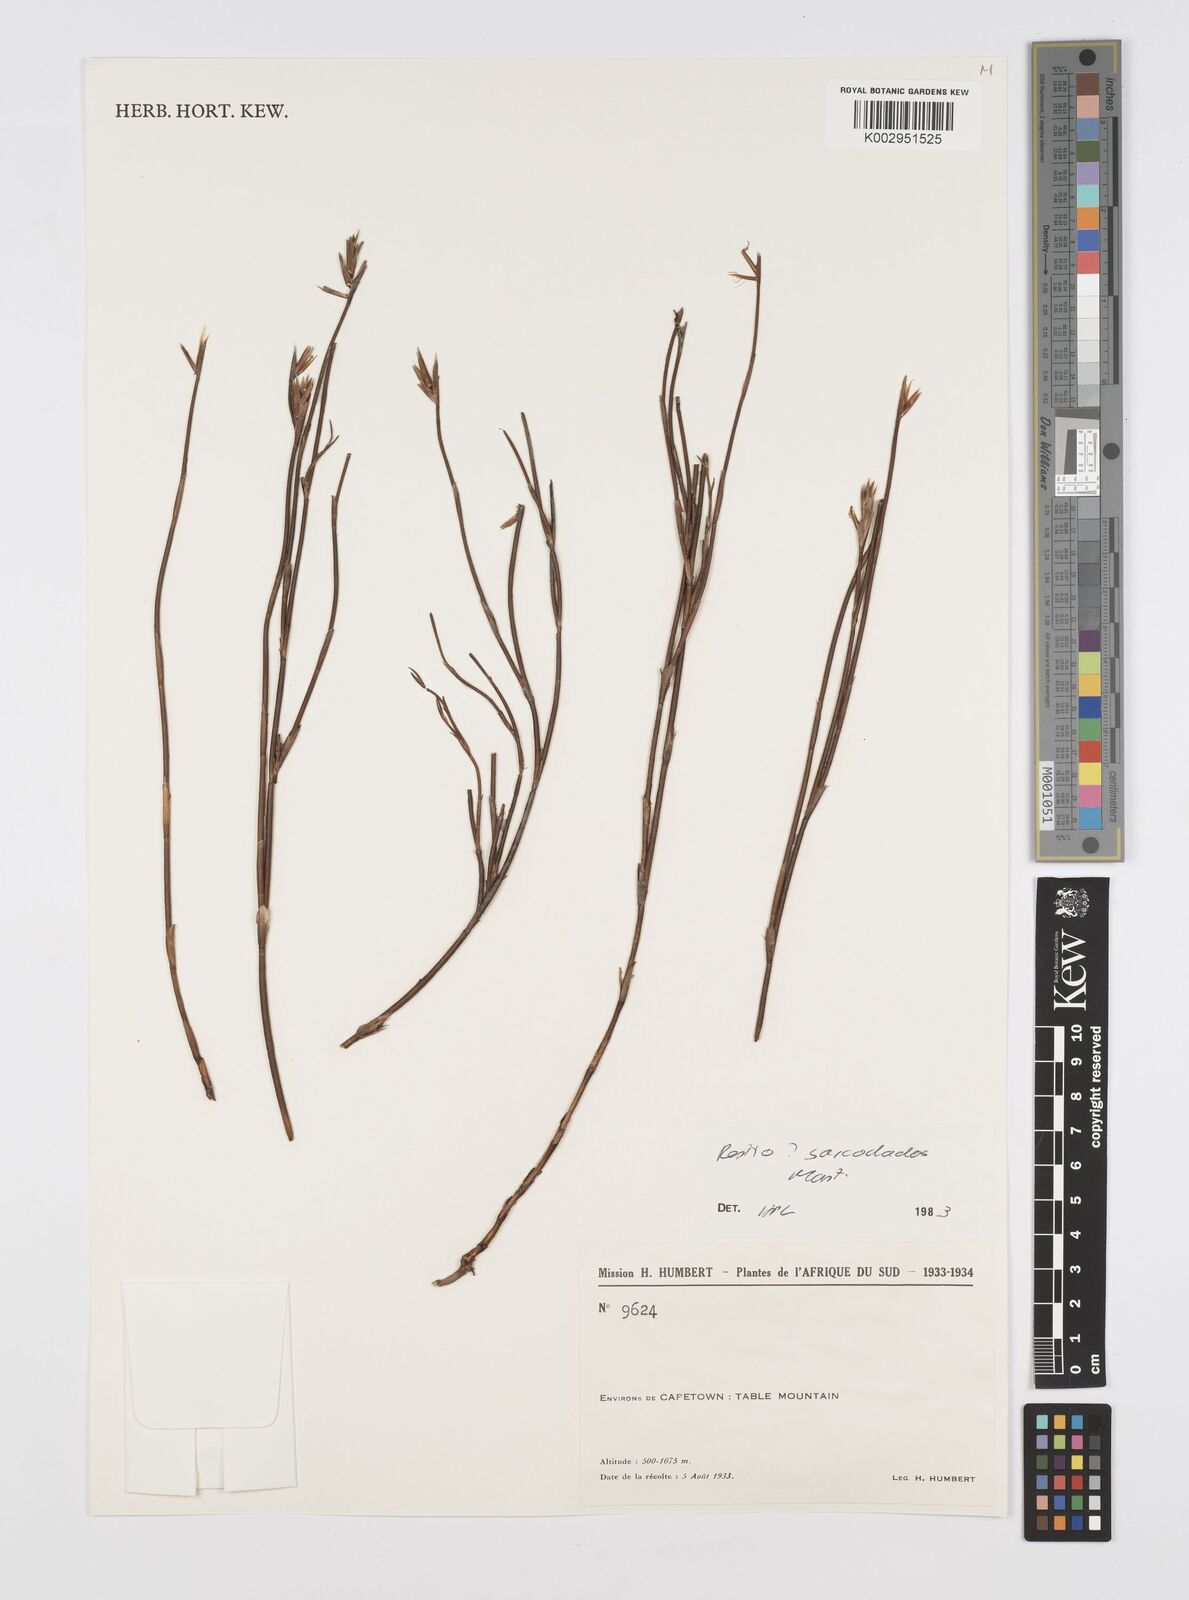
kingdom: Plantae
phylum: Tracheophyta
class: Liliopsida
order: Poales
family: Restionaceae
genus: Restio
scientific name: Restio saroclados
